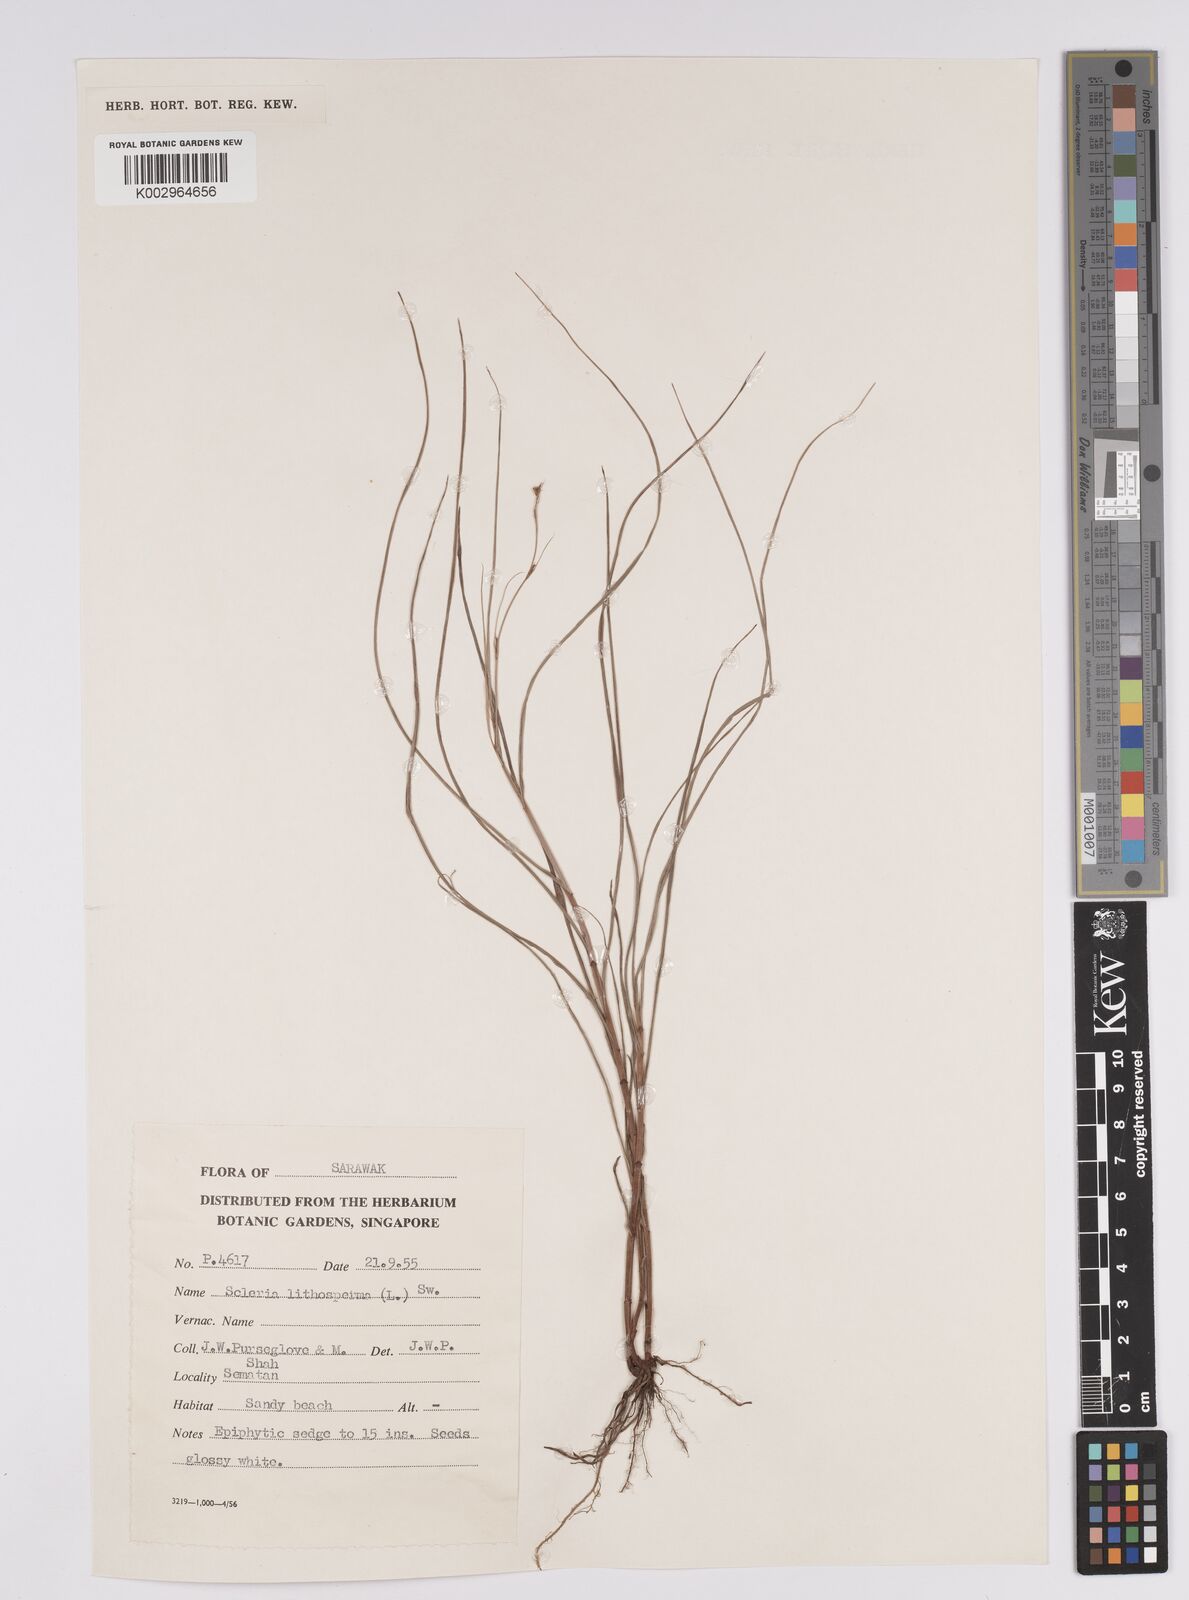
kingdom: Plantae
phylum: Tracheophyta
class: Liliopsida
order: Poales
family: Cyperaceae
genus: Scleria
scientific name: Scleria lithosperma
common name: Florida keys nut-rush
